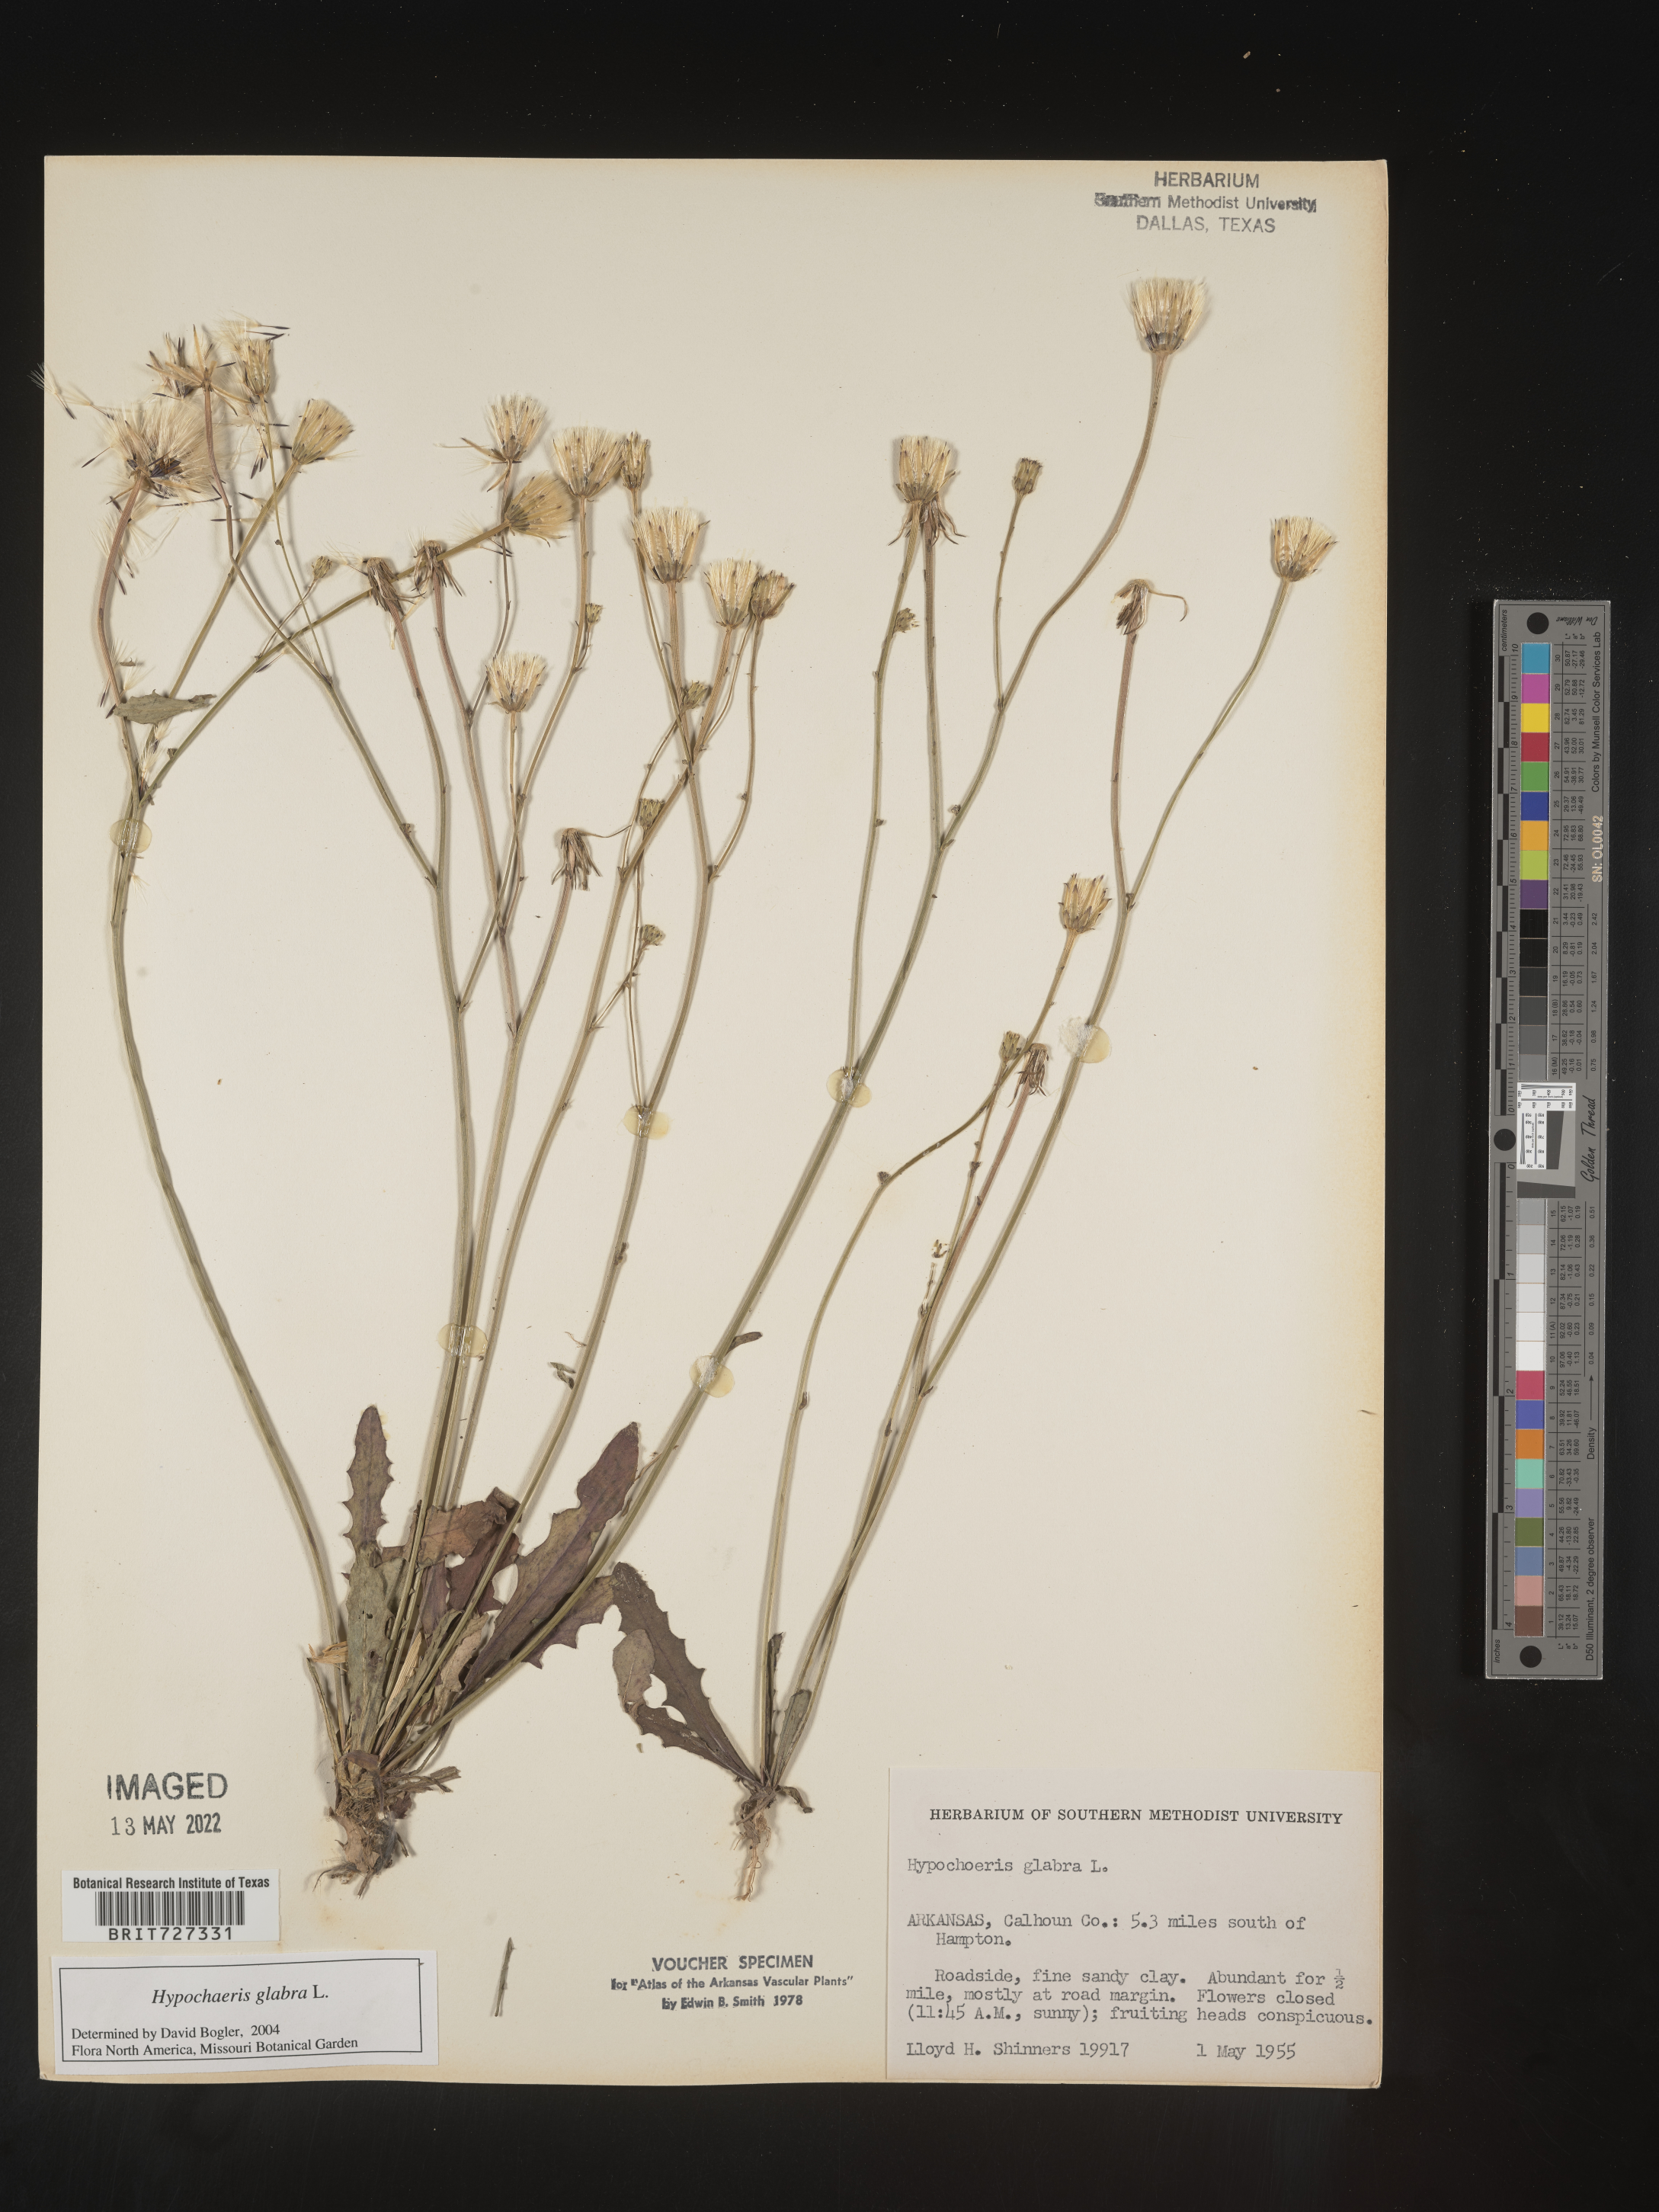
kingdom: Plantae
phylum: Tracheophyta
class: Magnoliopsida
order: Asterales
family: Asteraceae
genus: Hypochaeris
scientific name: Hypochaeris glabra
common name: Smooth catsear
